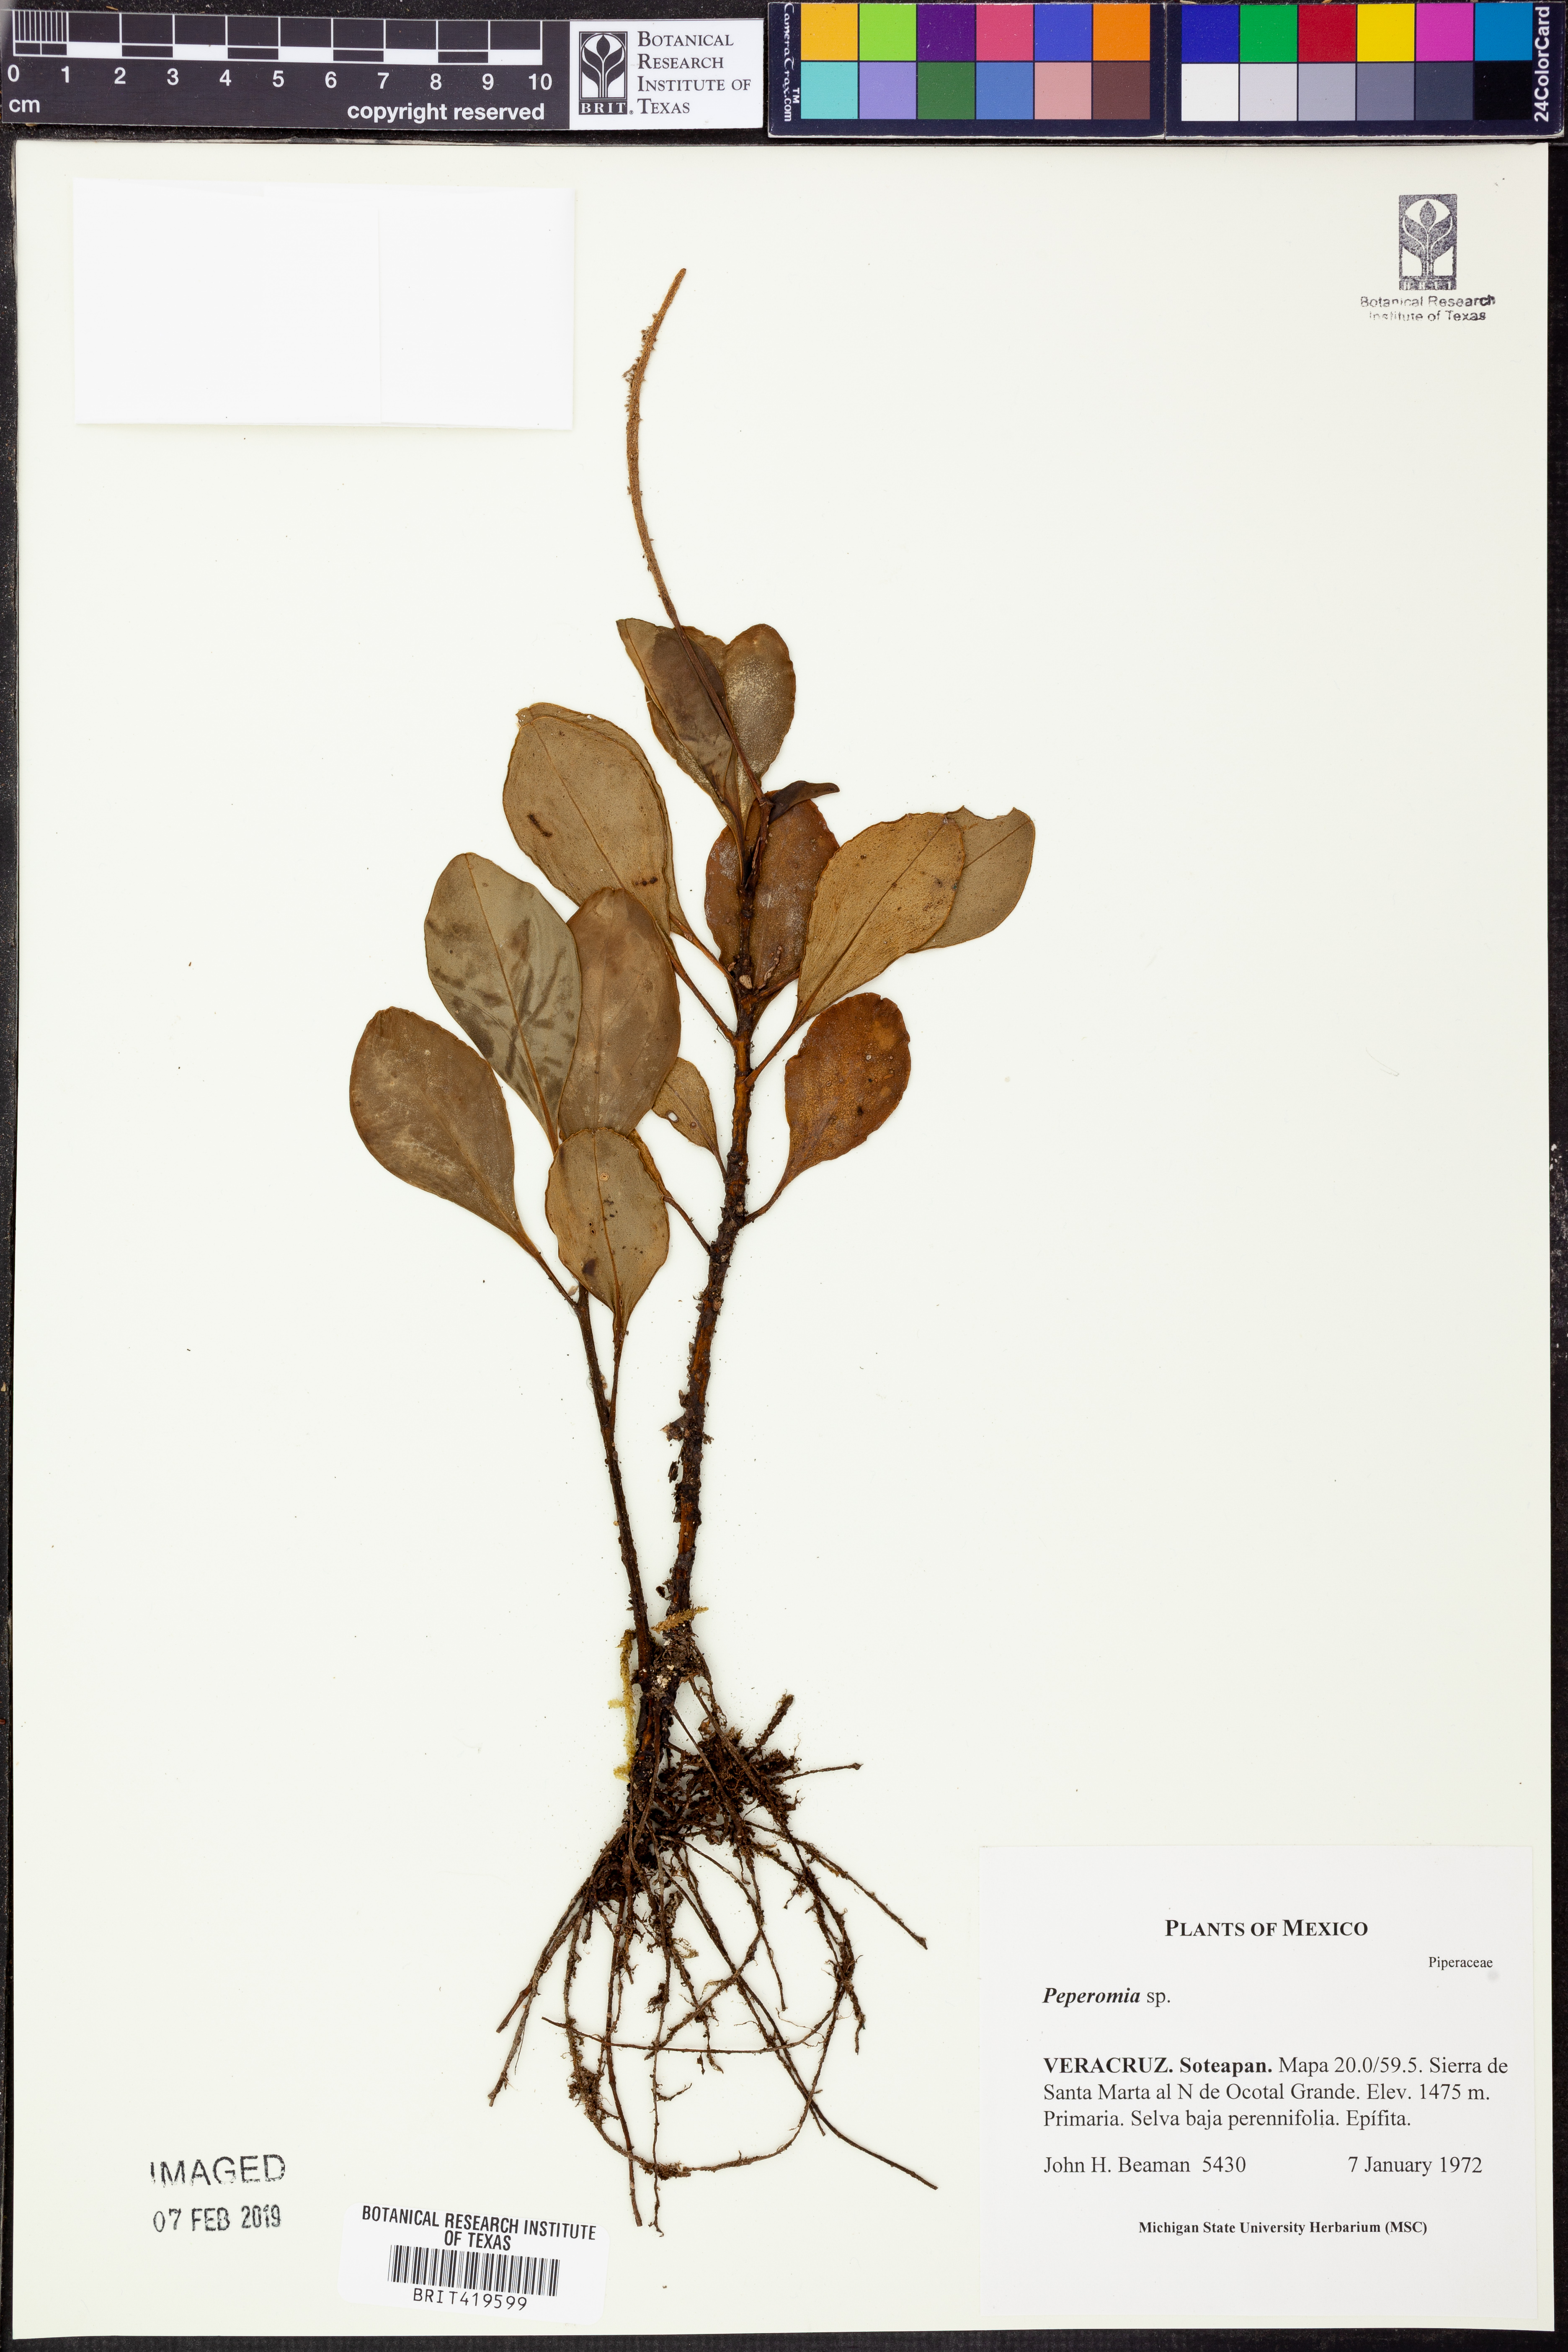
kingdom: Plantae
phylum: Tracheophyta
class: Magnoliopsida
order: Piperales
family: Piperaceae
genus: Peperomia
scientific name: Peperomia
